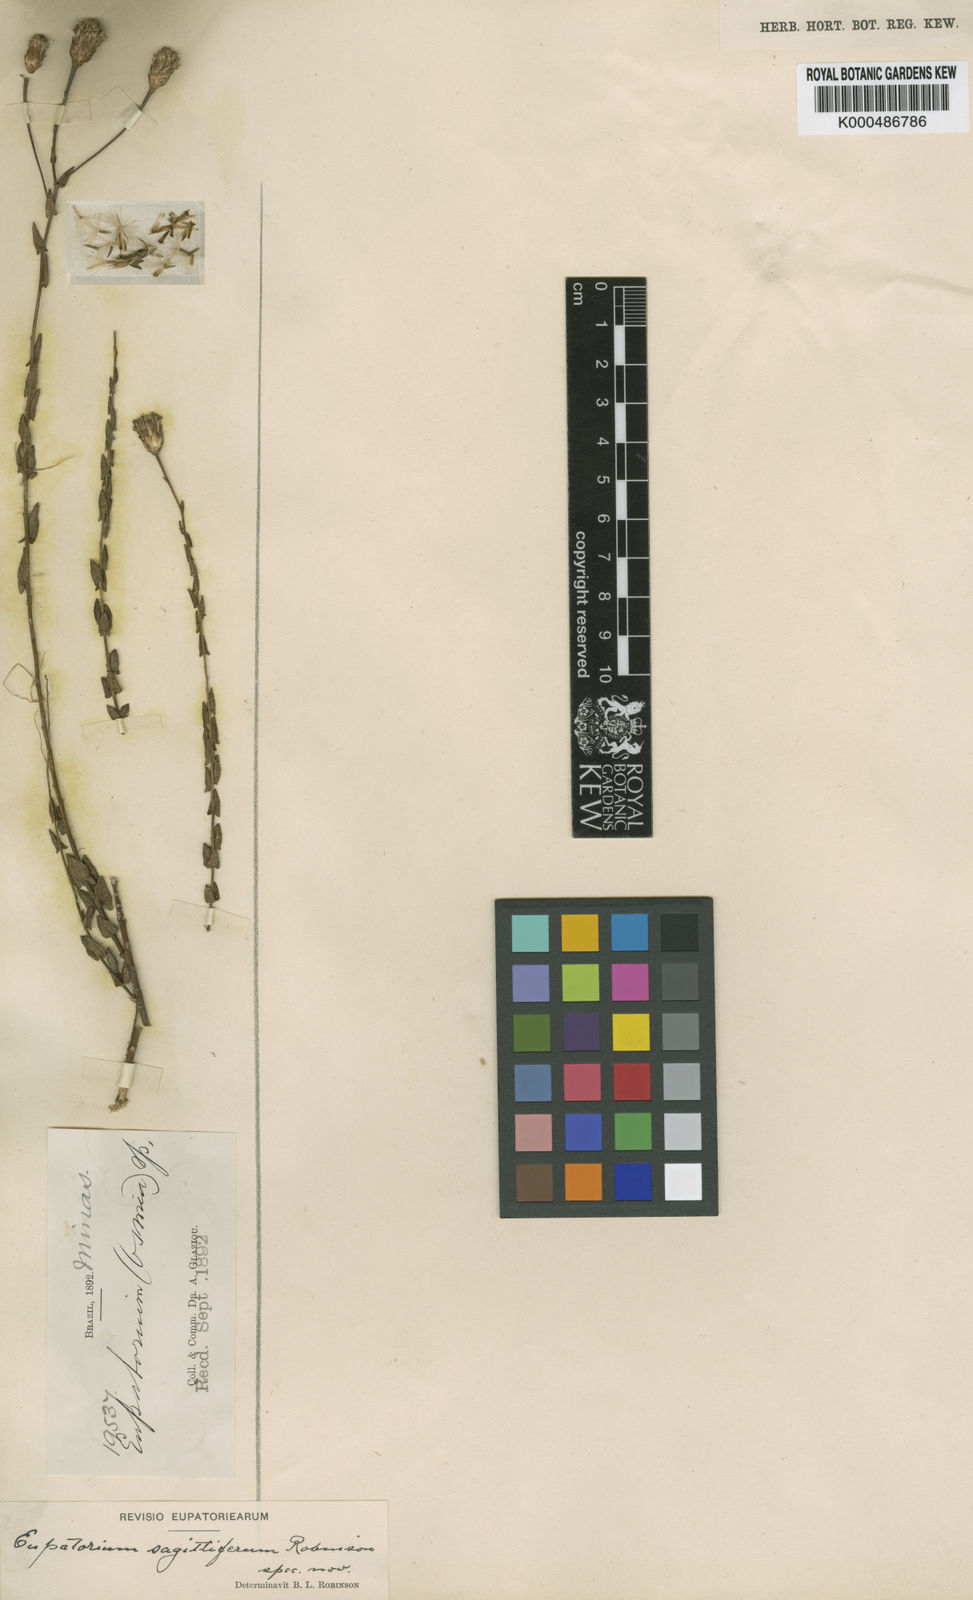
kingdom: Plantae
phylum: Tracheophyta
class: Magnoliopsida
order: Asterales
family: Asteraceae
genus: Chromolaena
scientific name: Chromolaena sagittifera
